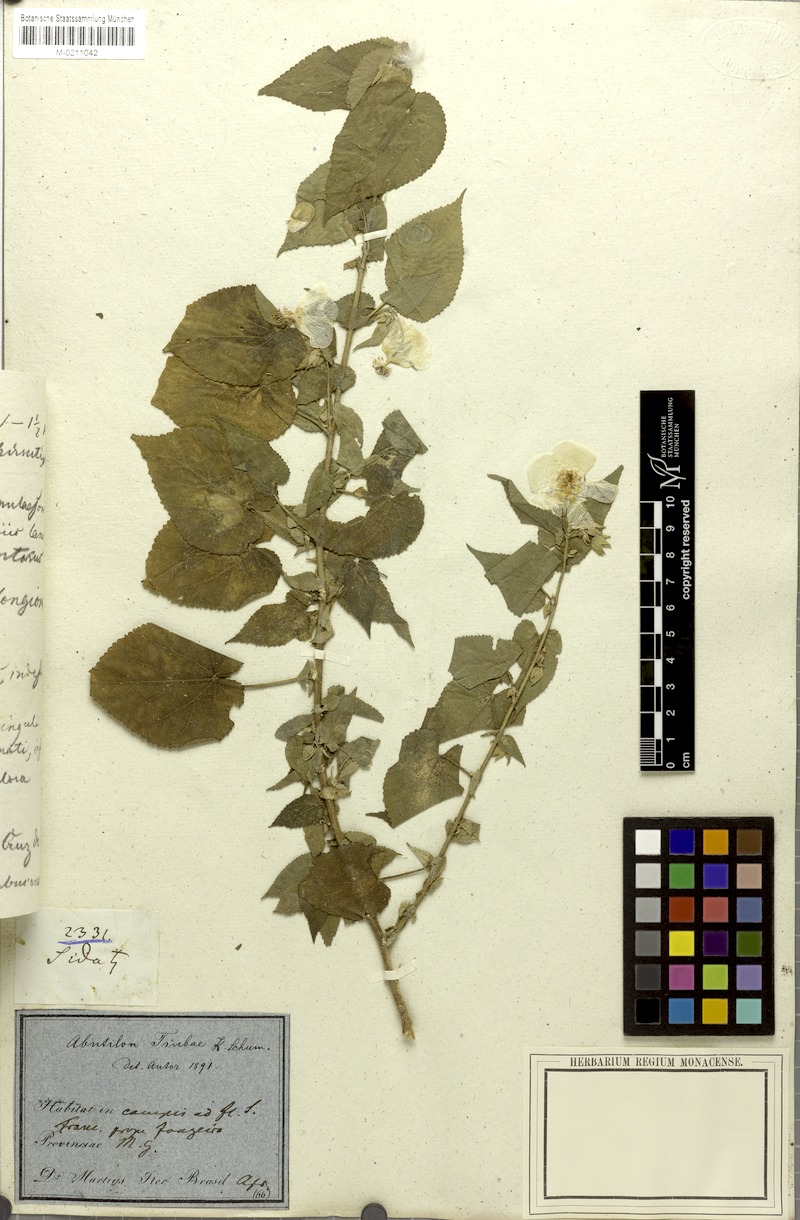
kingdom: Plantae
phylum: Tracheophyta
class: Magnoliopsida
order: Malvales
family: Malvaceae
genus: Herissantia
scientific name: Herissantia tiubae
